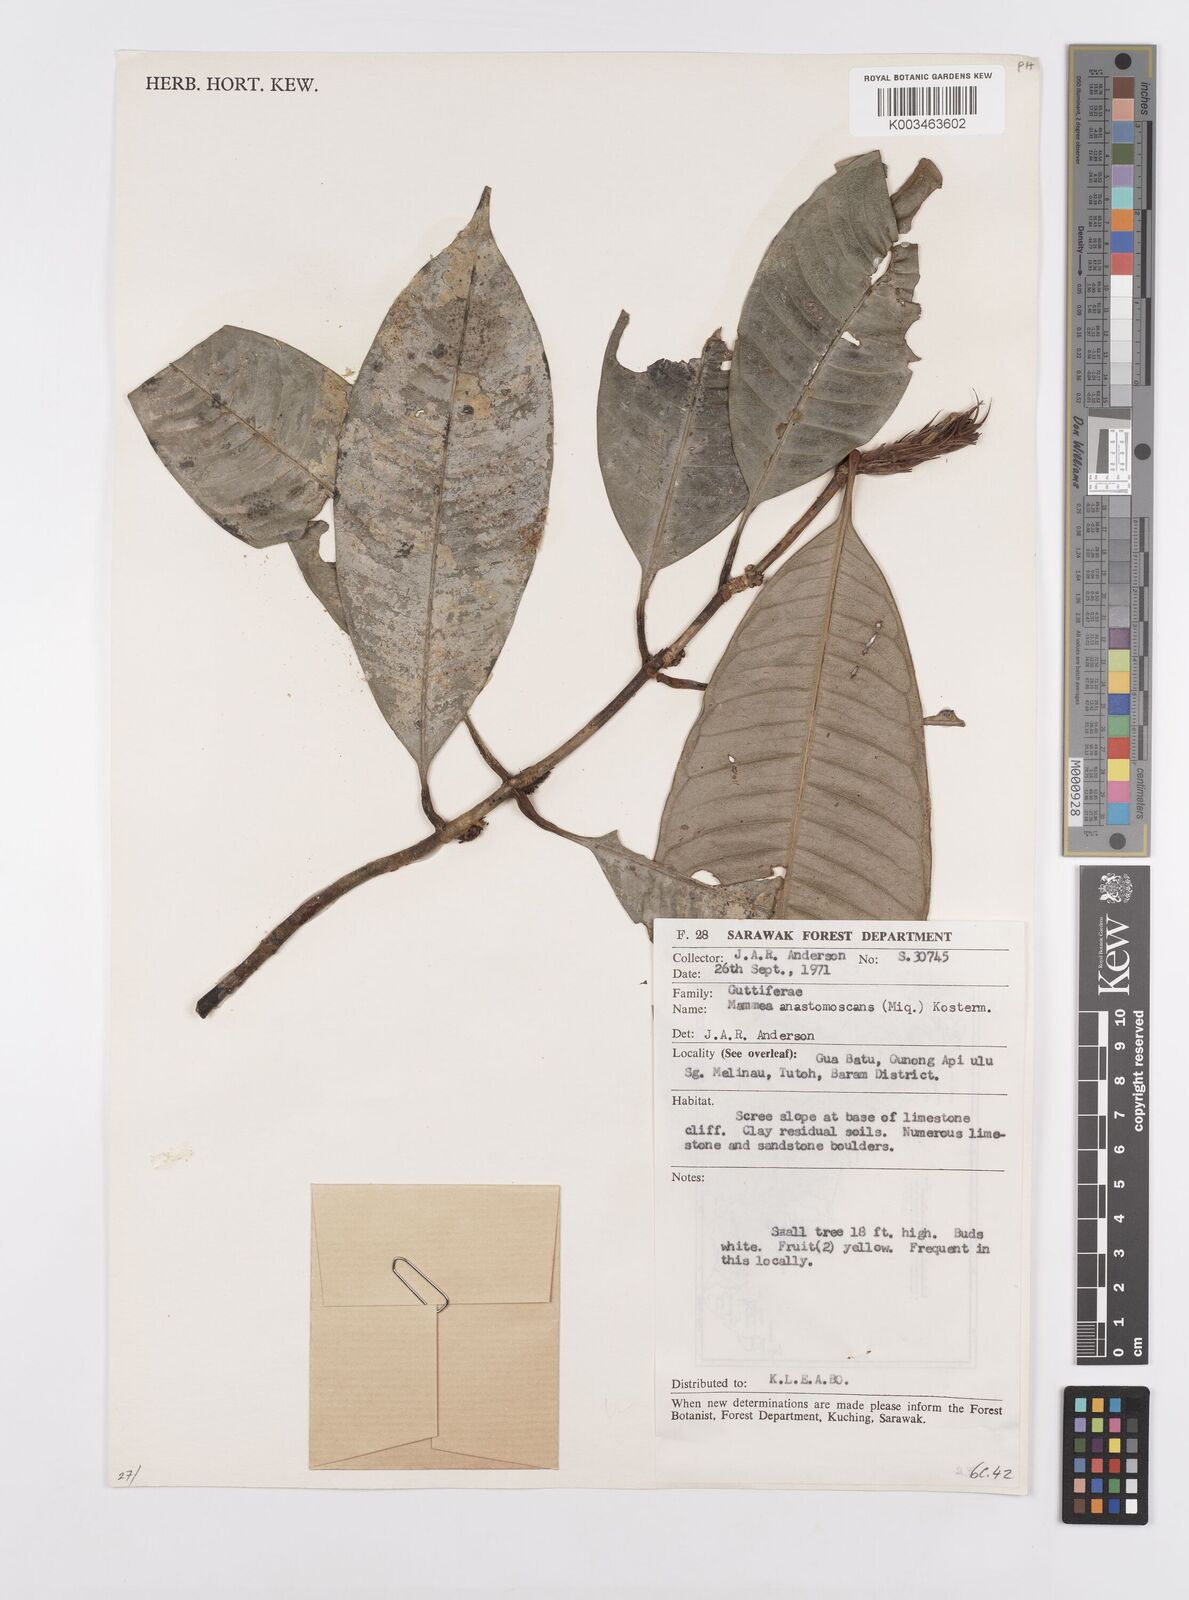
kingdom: Plantae
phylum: Tracheophyta
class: Magnoliopsida
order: Malpighiales
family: Calophyllaceae
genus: Mammea
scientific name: Mammea calciphila
